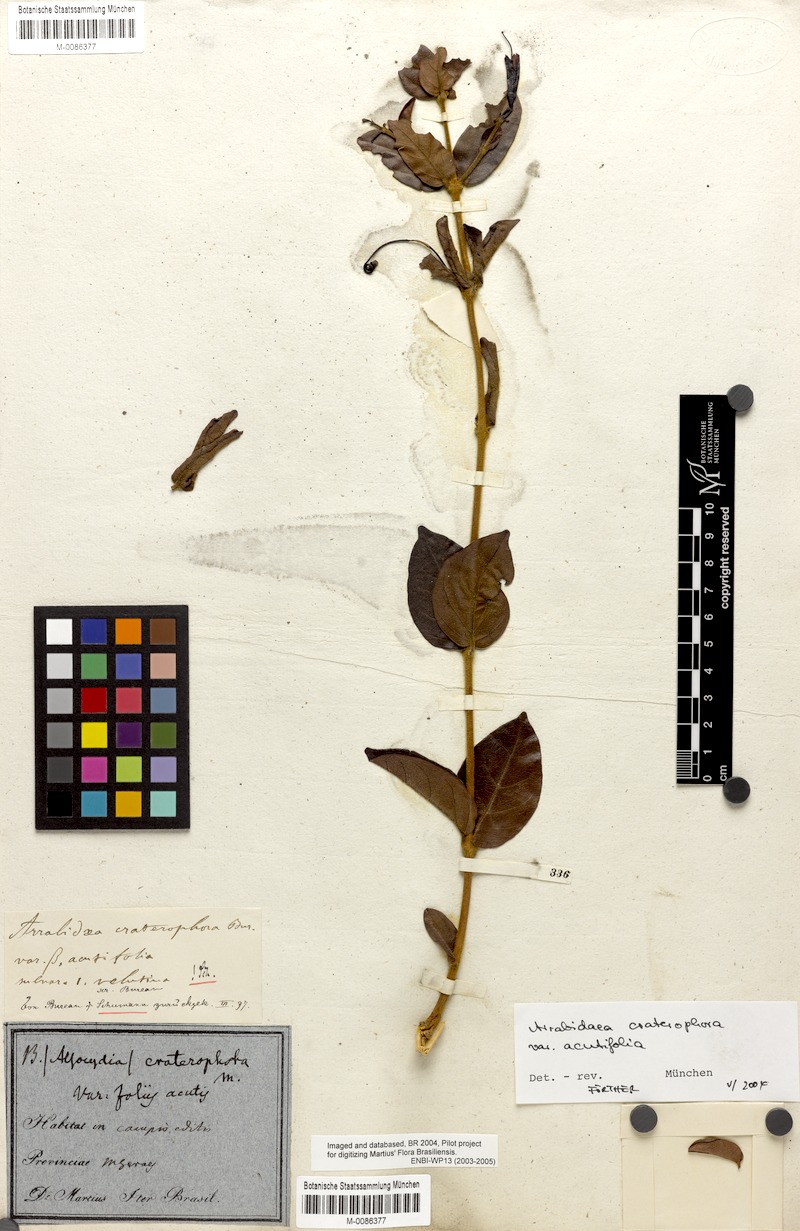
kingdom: Plantae
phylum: Tracheophyta
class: Magnoliopsida
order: Lamiales
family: Bignoniaceae
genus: Fridericia
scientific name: Fridericia craterophora
